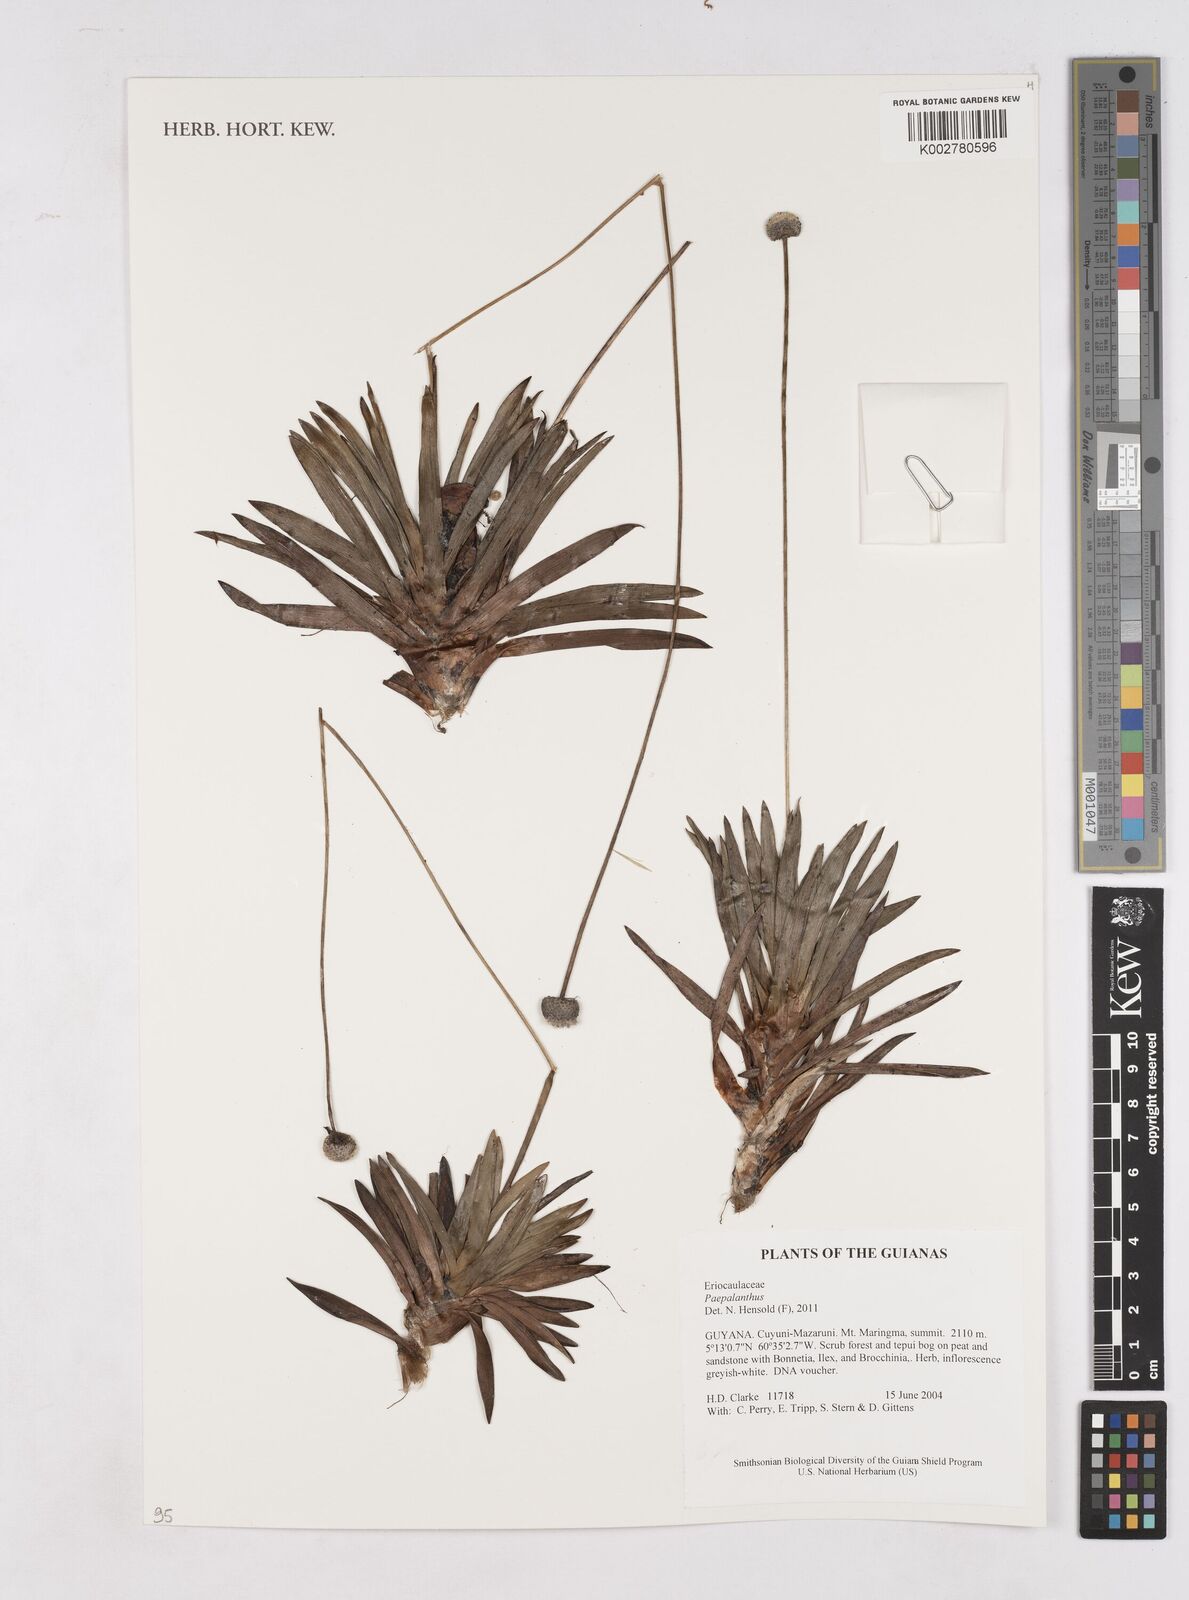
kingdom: Plantae
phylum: Tracheophyta
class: Liliopsida
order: Poales
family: Eriocaulaceae
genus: Paepalanthus
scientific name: Paepalanthus
